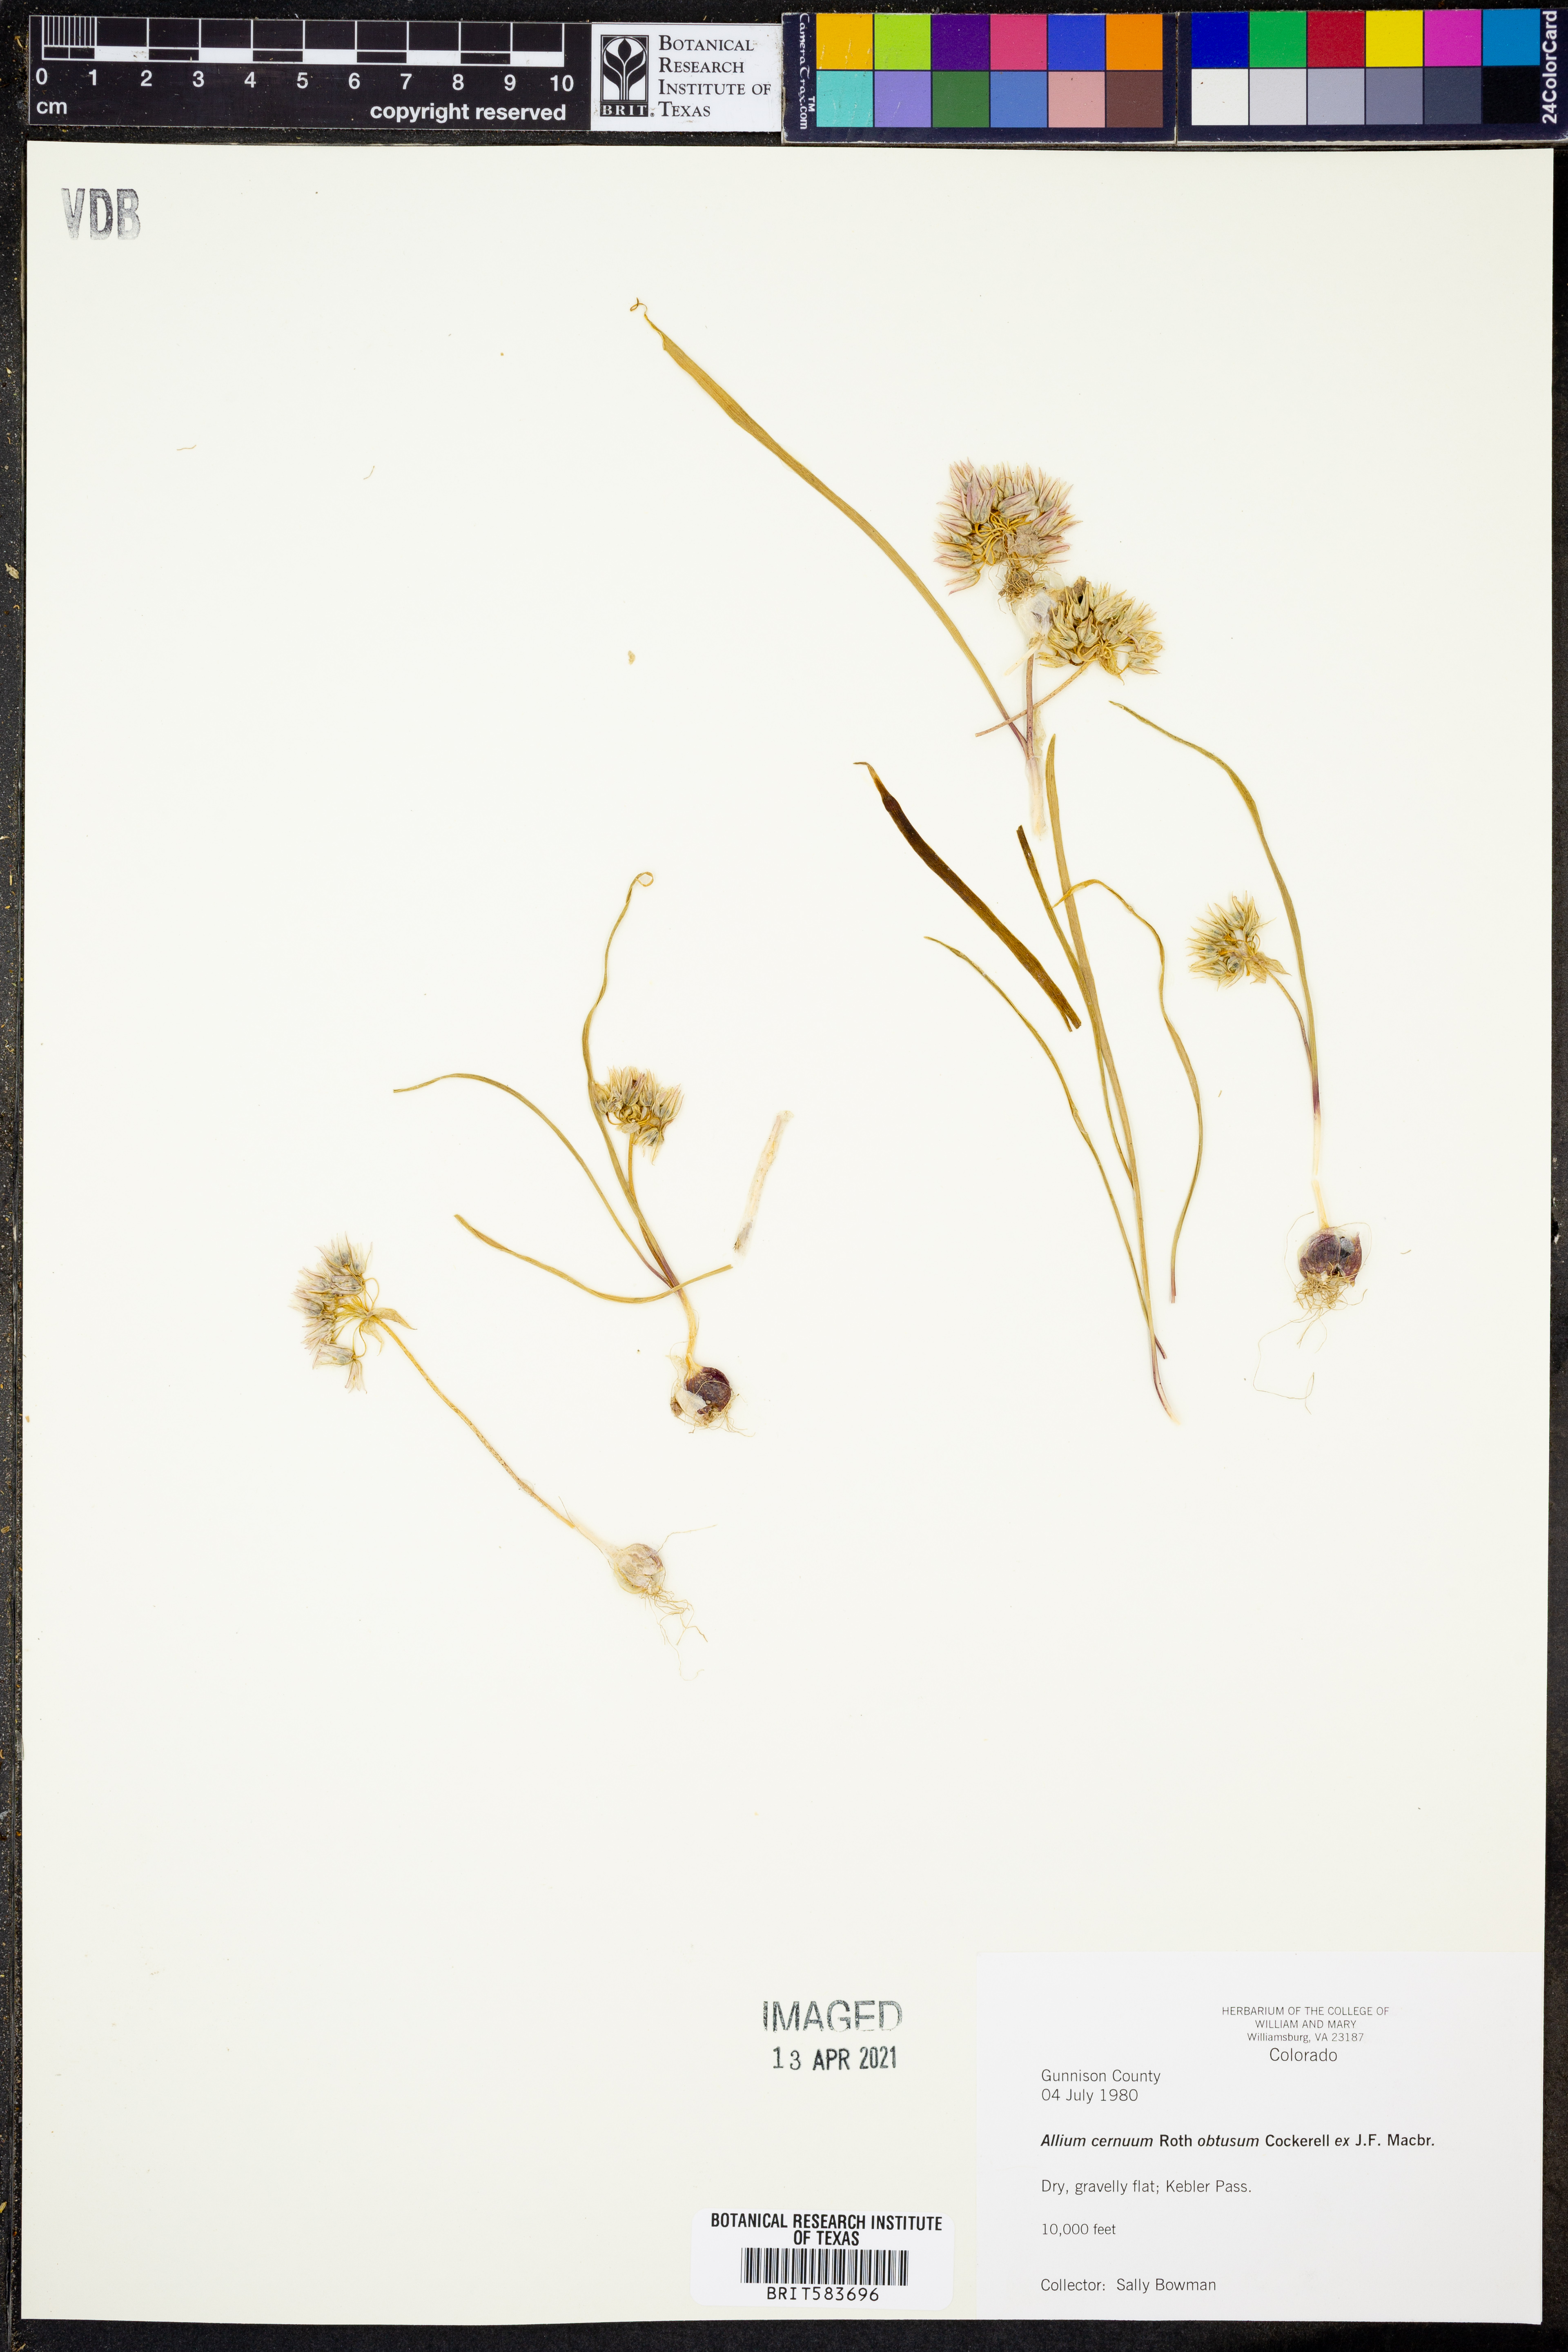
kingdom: Plantae
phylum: Tracheophyta
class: Liliopsida
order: Asparagales
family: Amaryllidaceae
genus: Allium
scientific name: Allium cernuum
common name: Nodding onion
